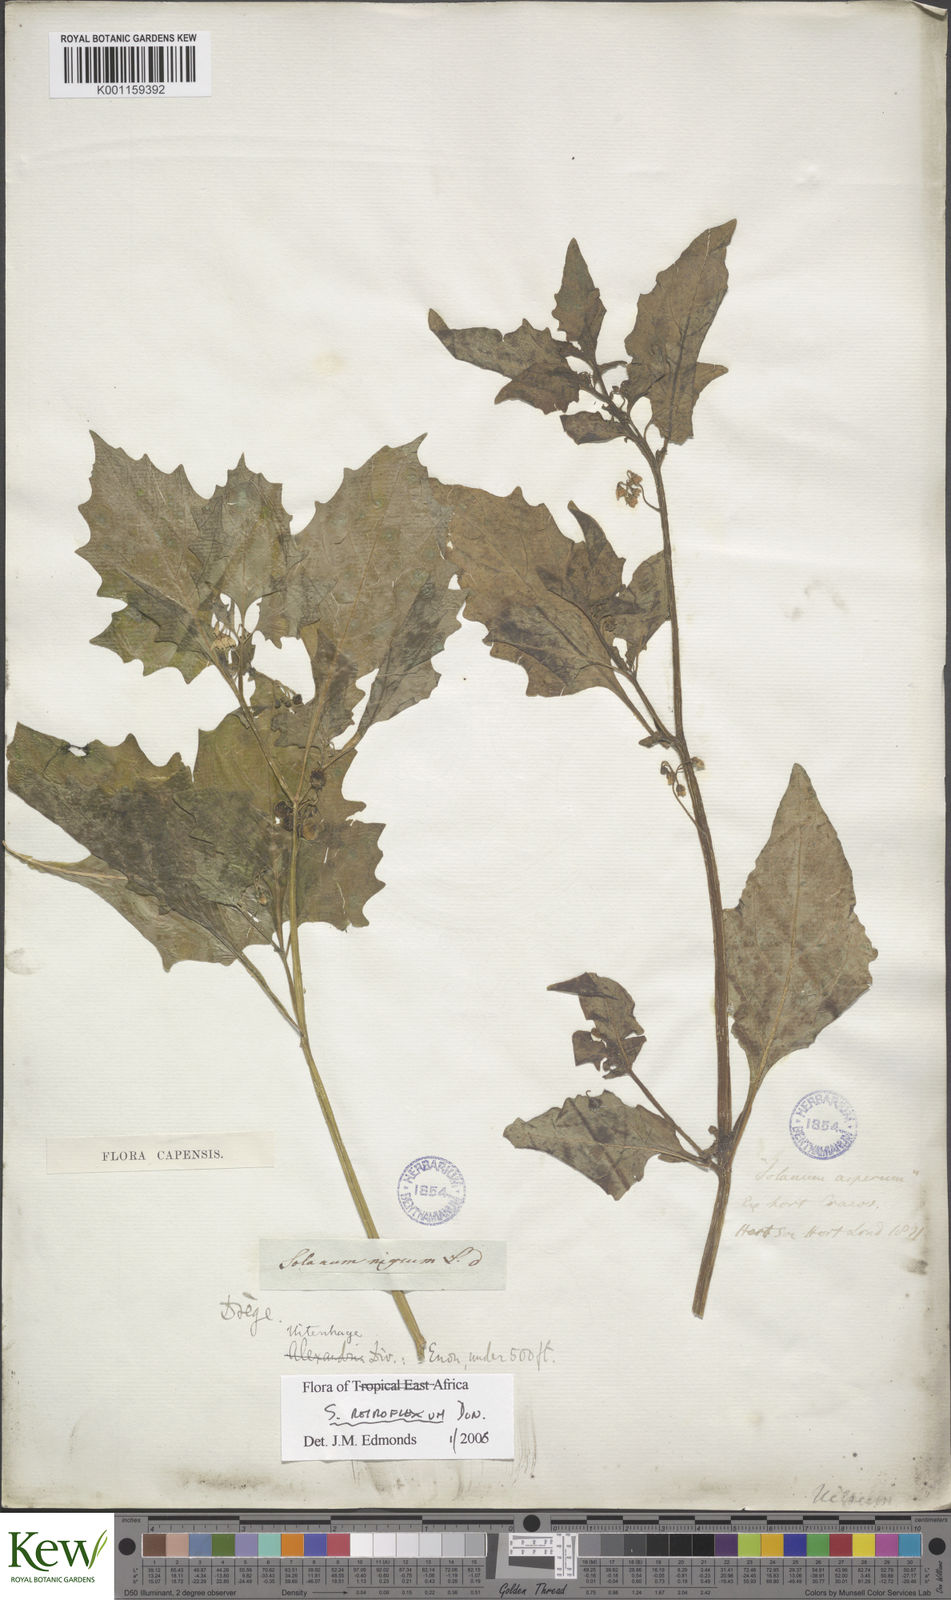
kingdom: Plantae
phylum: Tracheophyta
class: Magnoliopsida
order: Solanales
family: Solanaceae
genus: Solanum
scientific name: Solanum tarderemotum
